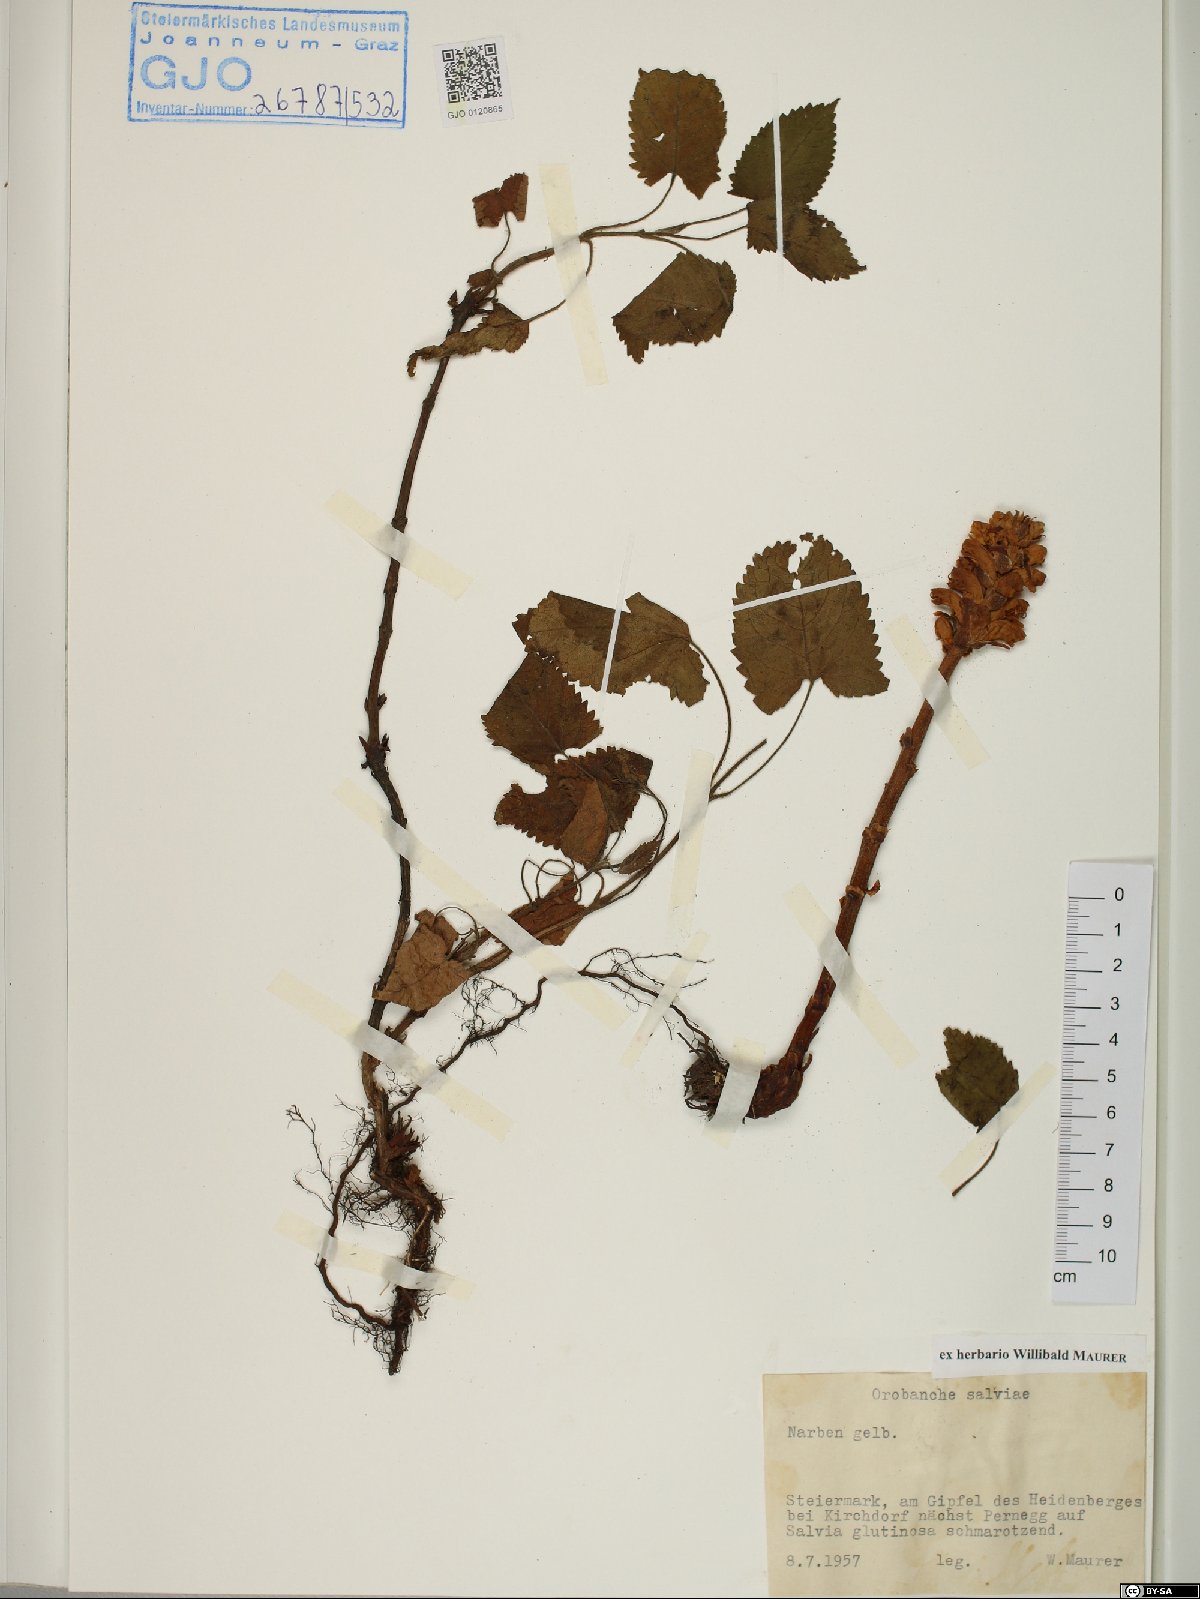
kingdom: Plantae
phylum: Tracheophyta
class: Magnoliopsida
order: Lamiales
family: Orobanchaceae
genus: Orobanche
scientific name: Orobanche salviae
